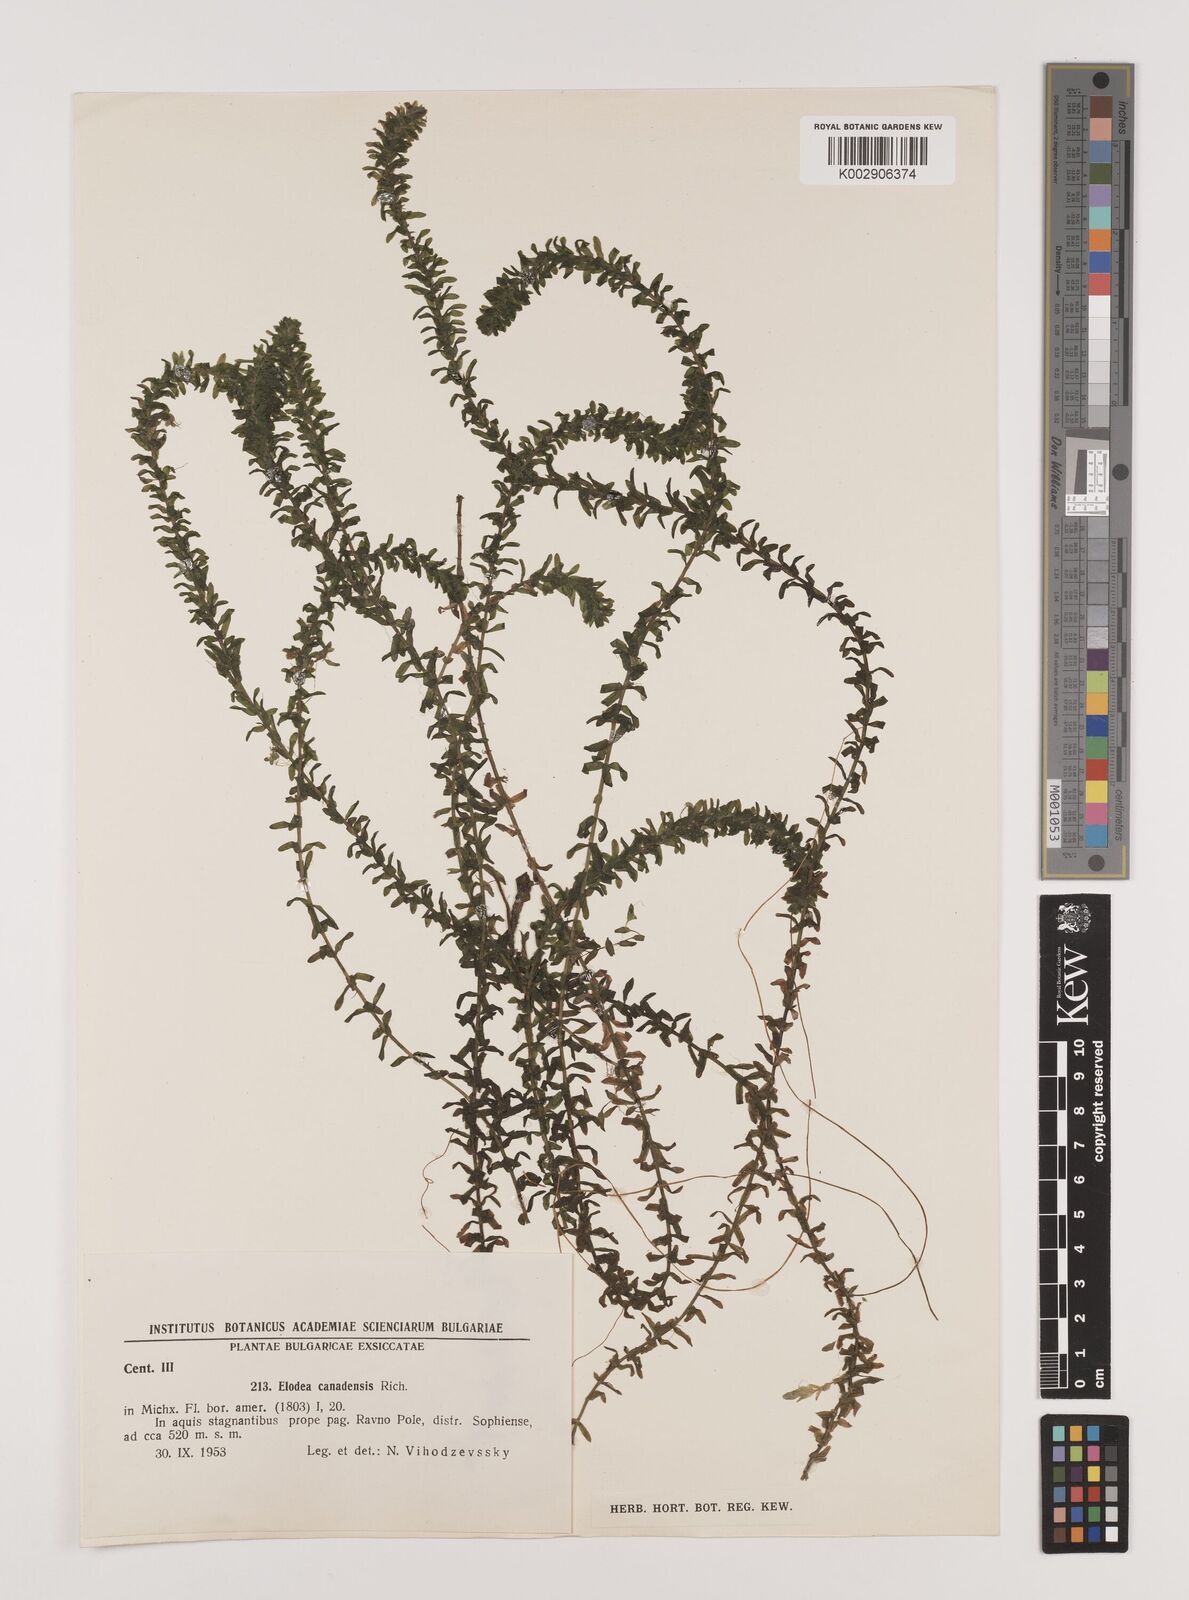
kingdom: Plantae
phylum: Tracheophyta
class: Liliopsida
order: Alismatales
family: Hydrocharitaceae
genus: Elodea
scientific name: Elodea canadensis
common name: Canadian waterweed
